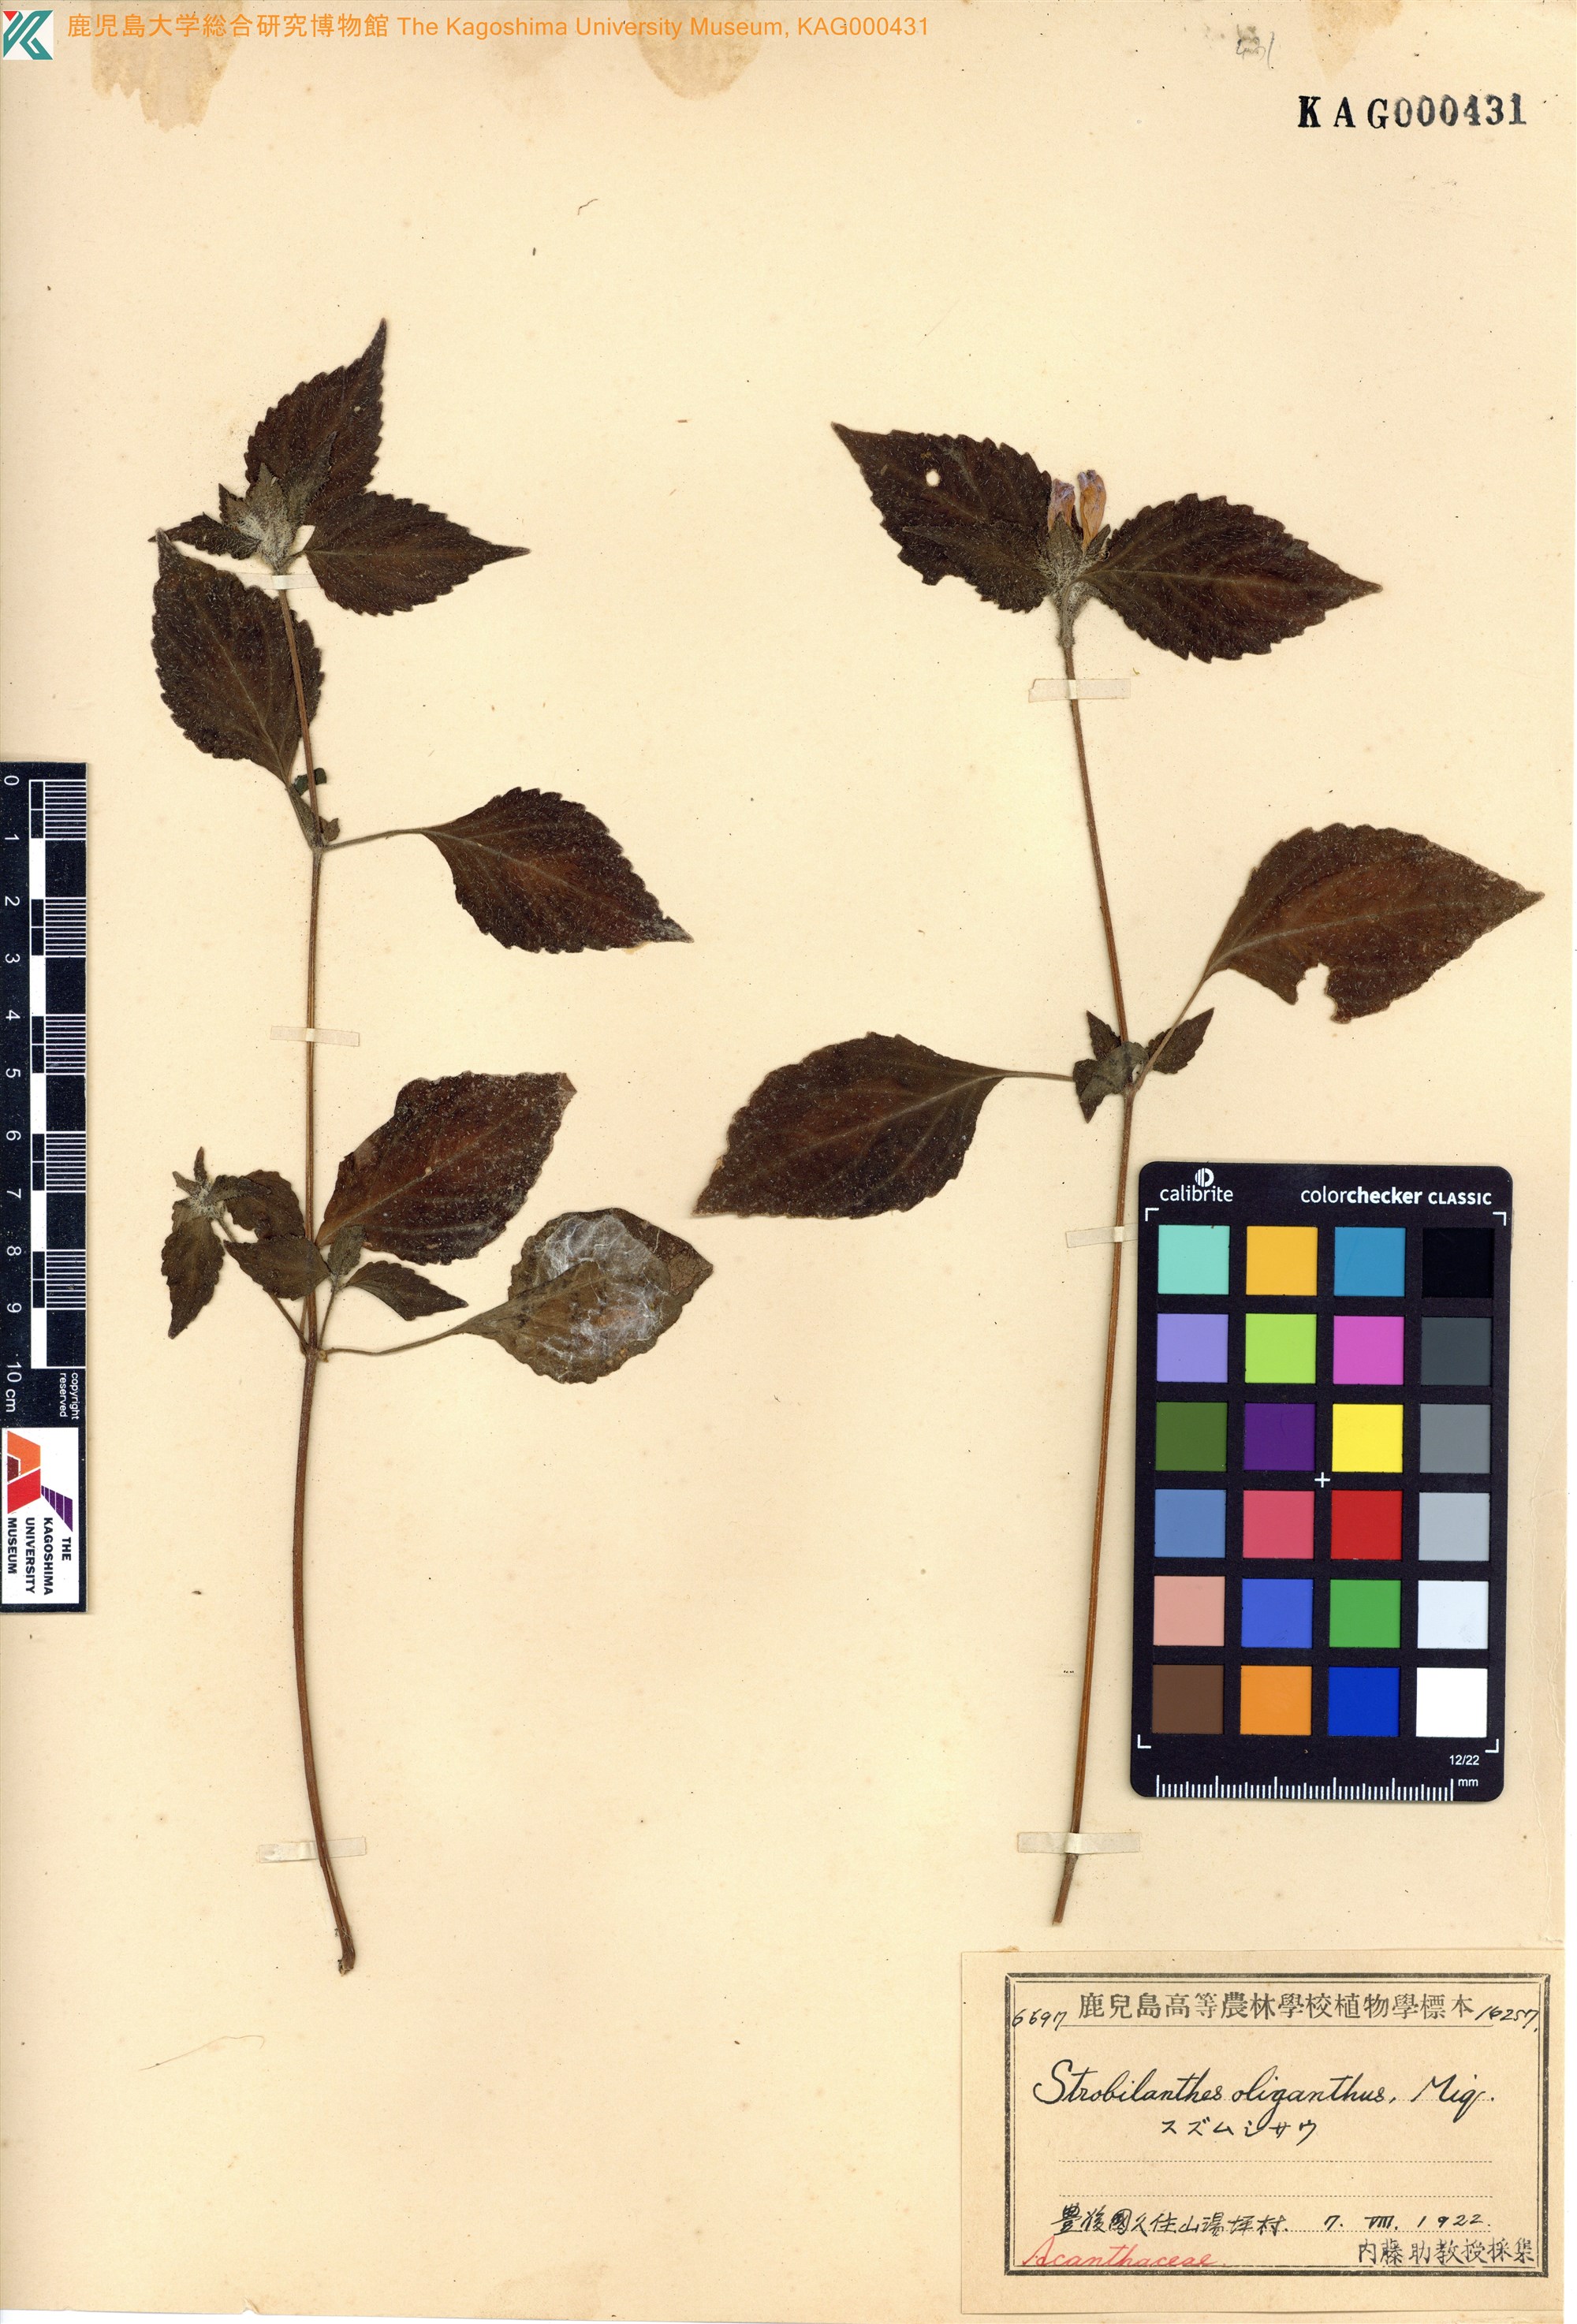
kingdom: Plantae
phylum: Tracheophyta
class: Magnoliopsida
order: Lamiales
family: Acanthaceae
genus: Strobilanthes
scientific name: Strobilanthes oligantha
